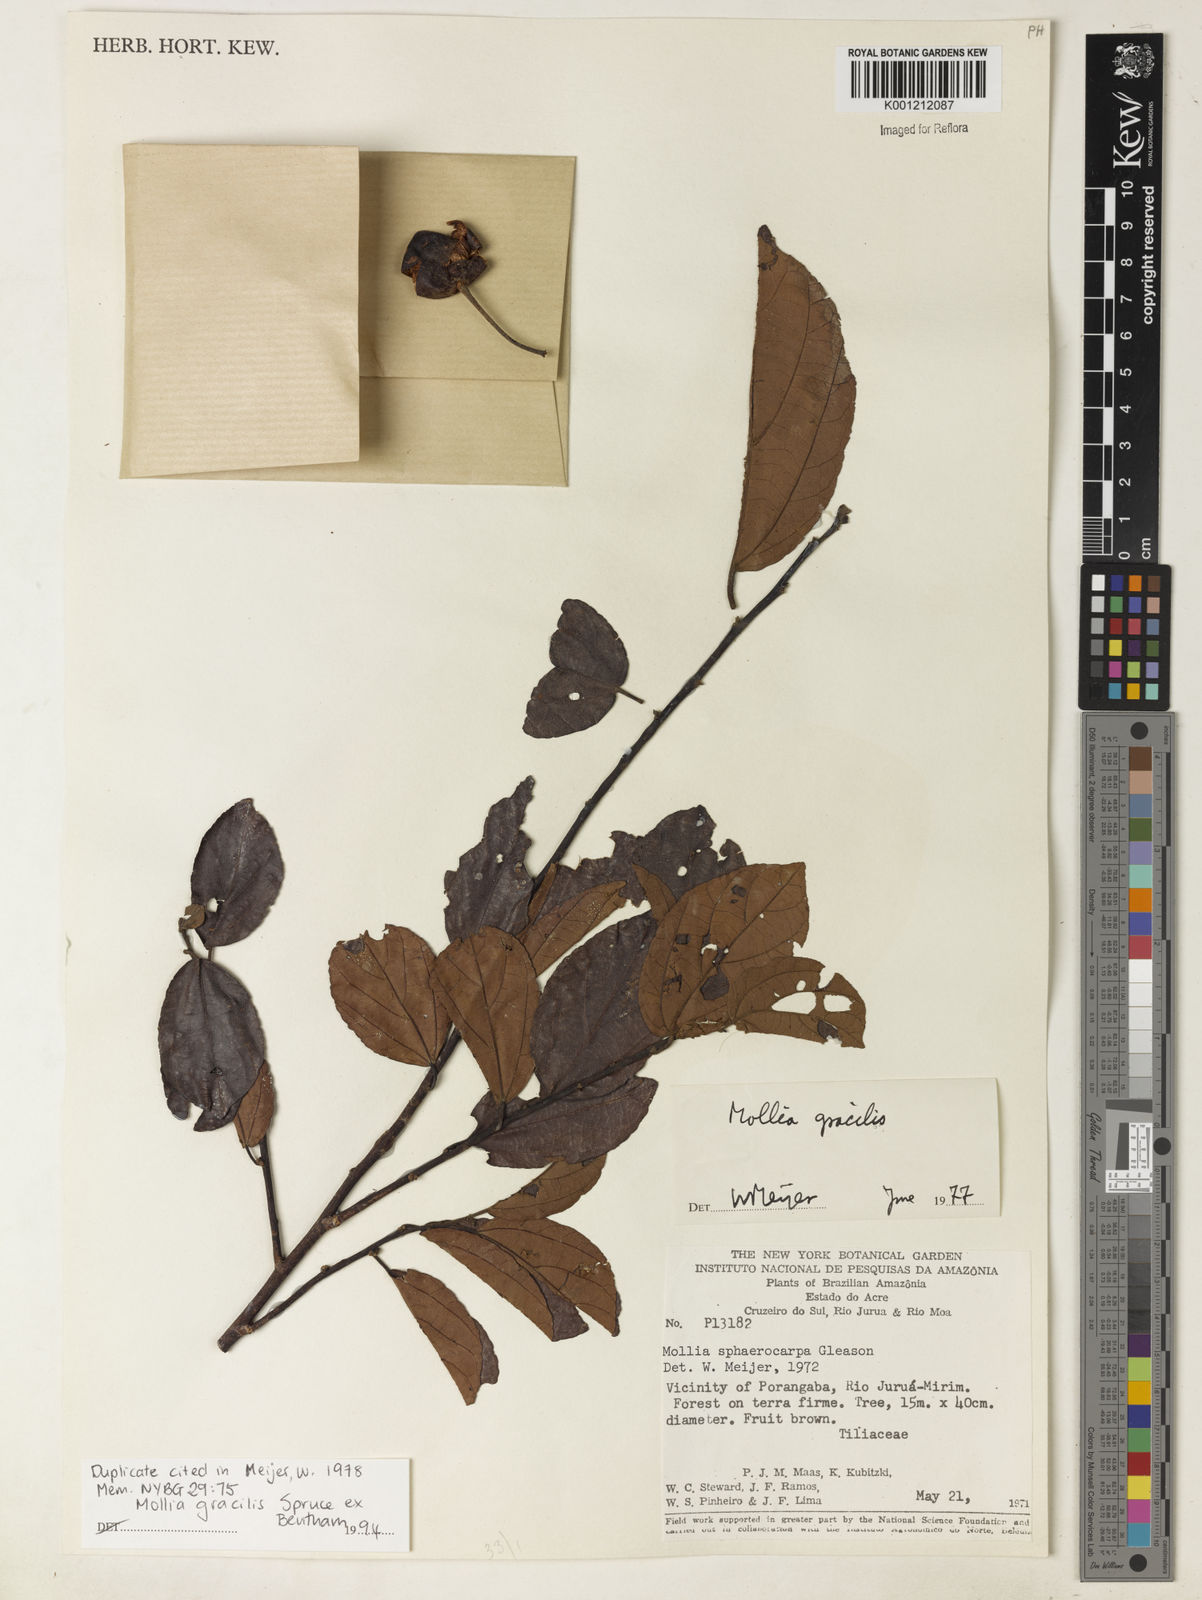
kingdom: Plantae
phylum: Tracheophyta
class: Magnoliopsida
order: Malvales
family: Malvaceae
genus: Mollia
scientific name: Mollia gracilis
